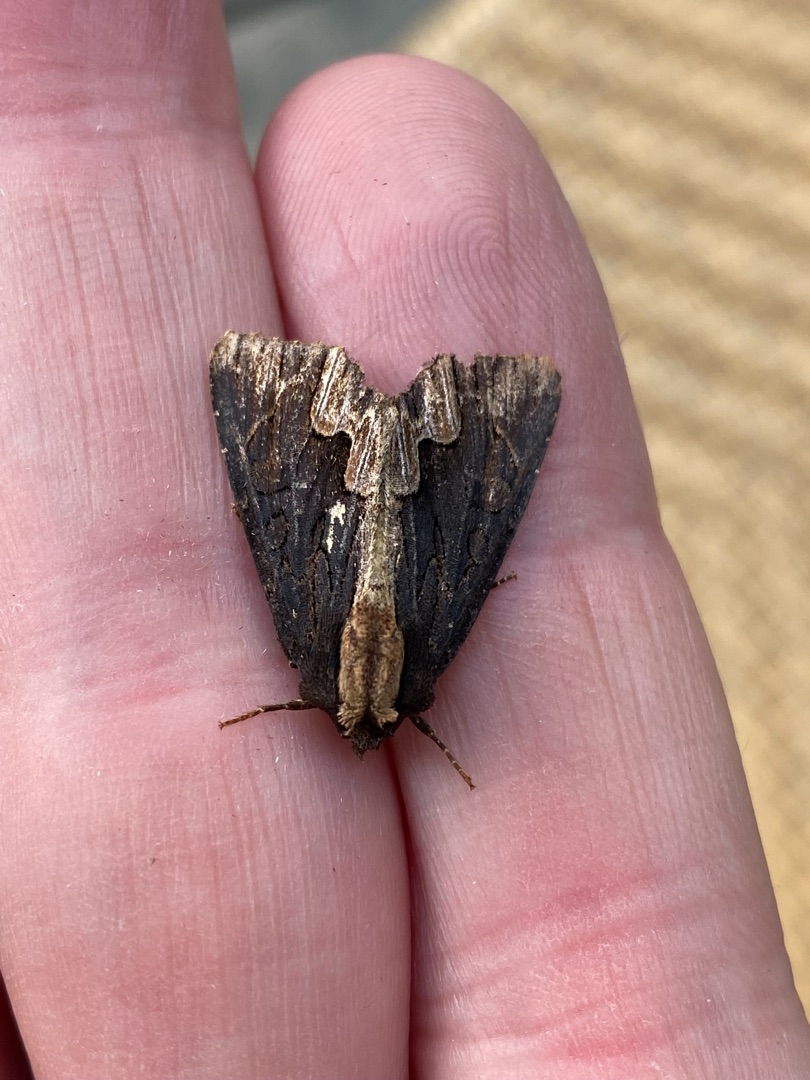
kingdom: Animalia
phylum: Arthropoda
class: Insecta
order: Lepidoptera
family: Noctuidae
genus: Dypterygia
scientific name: Dypterygia scabriuscula
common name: Mørk skræppeugle
